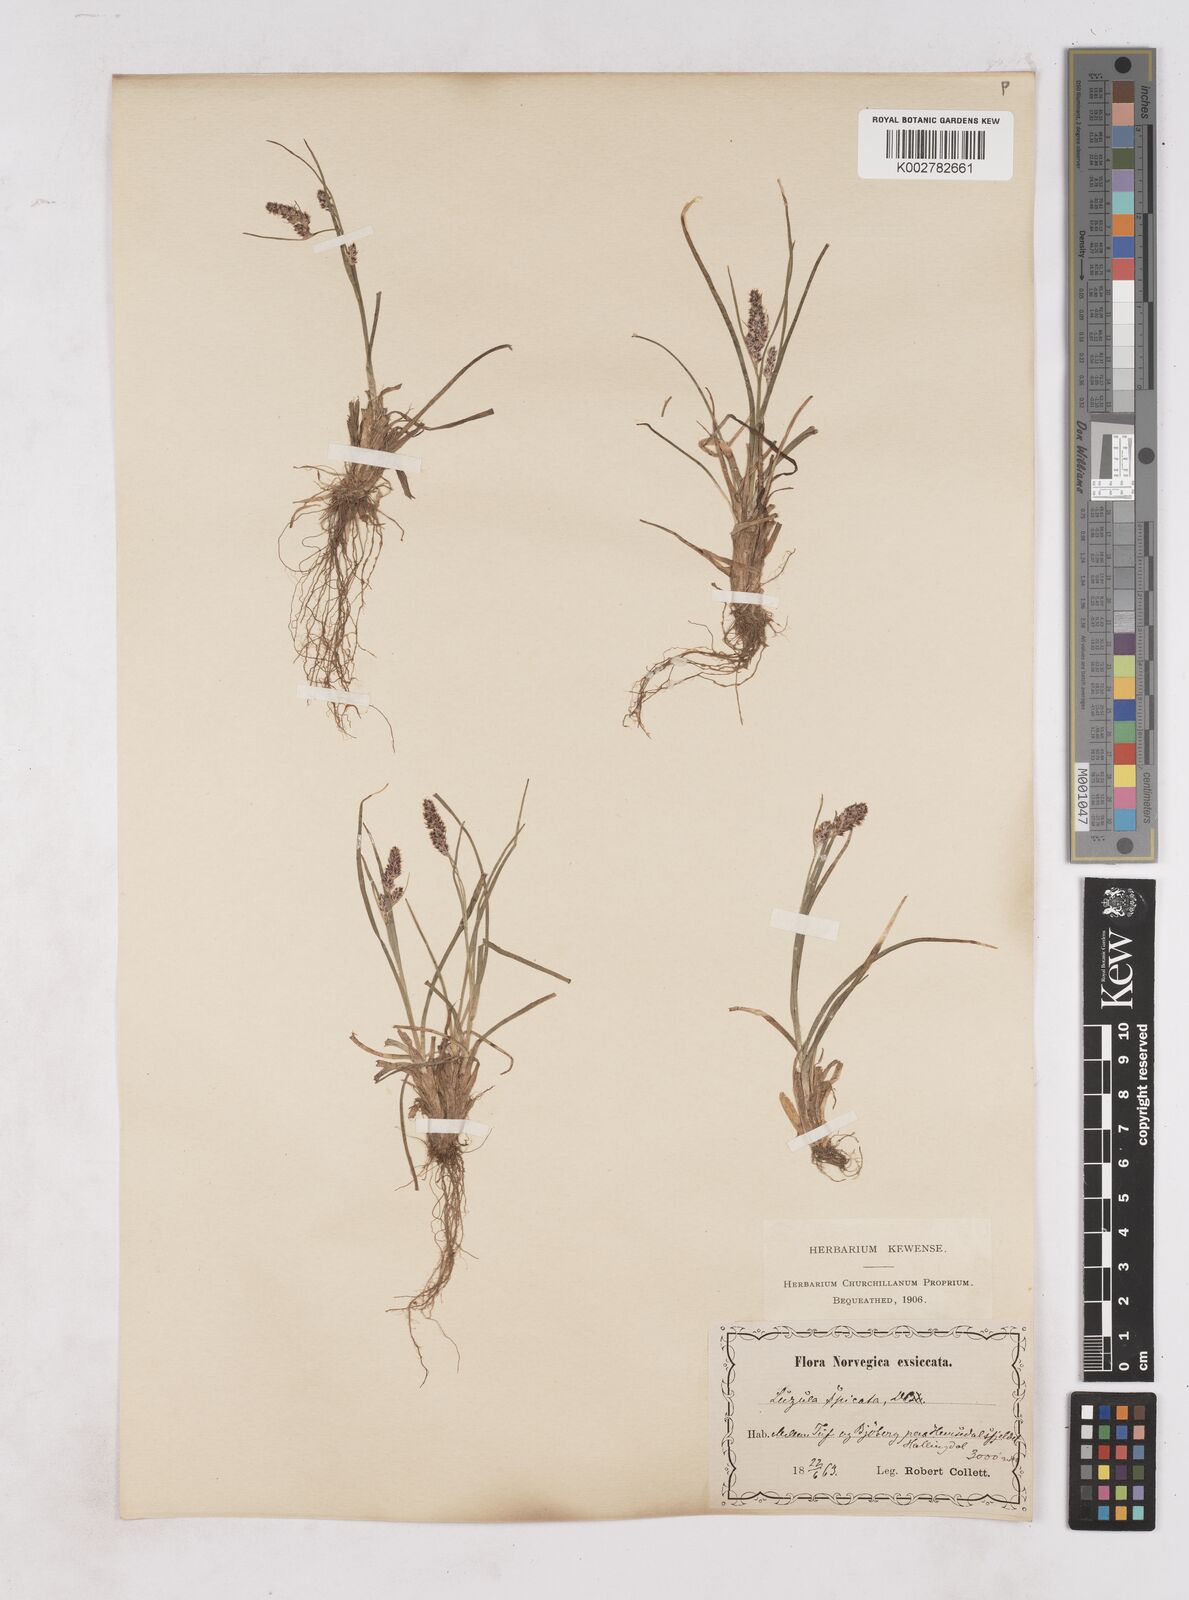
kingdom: Plantae
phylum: Tracheophyta
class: Liliopsida
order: Poales
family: Juncaceae
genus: Luzula
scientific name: Luzula spicata
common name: Spiked wood-rush
